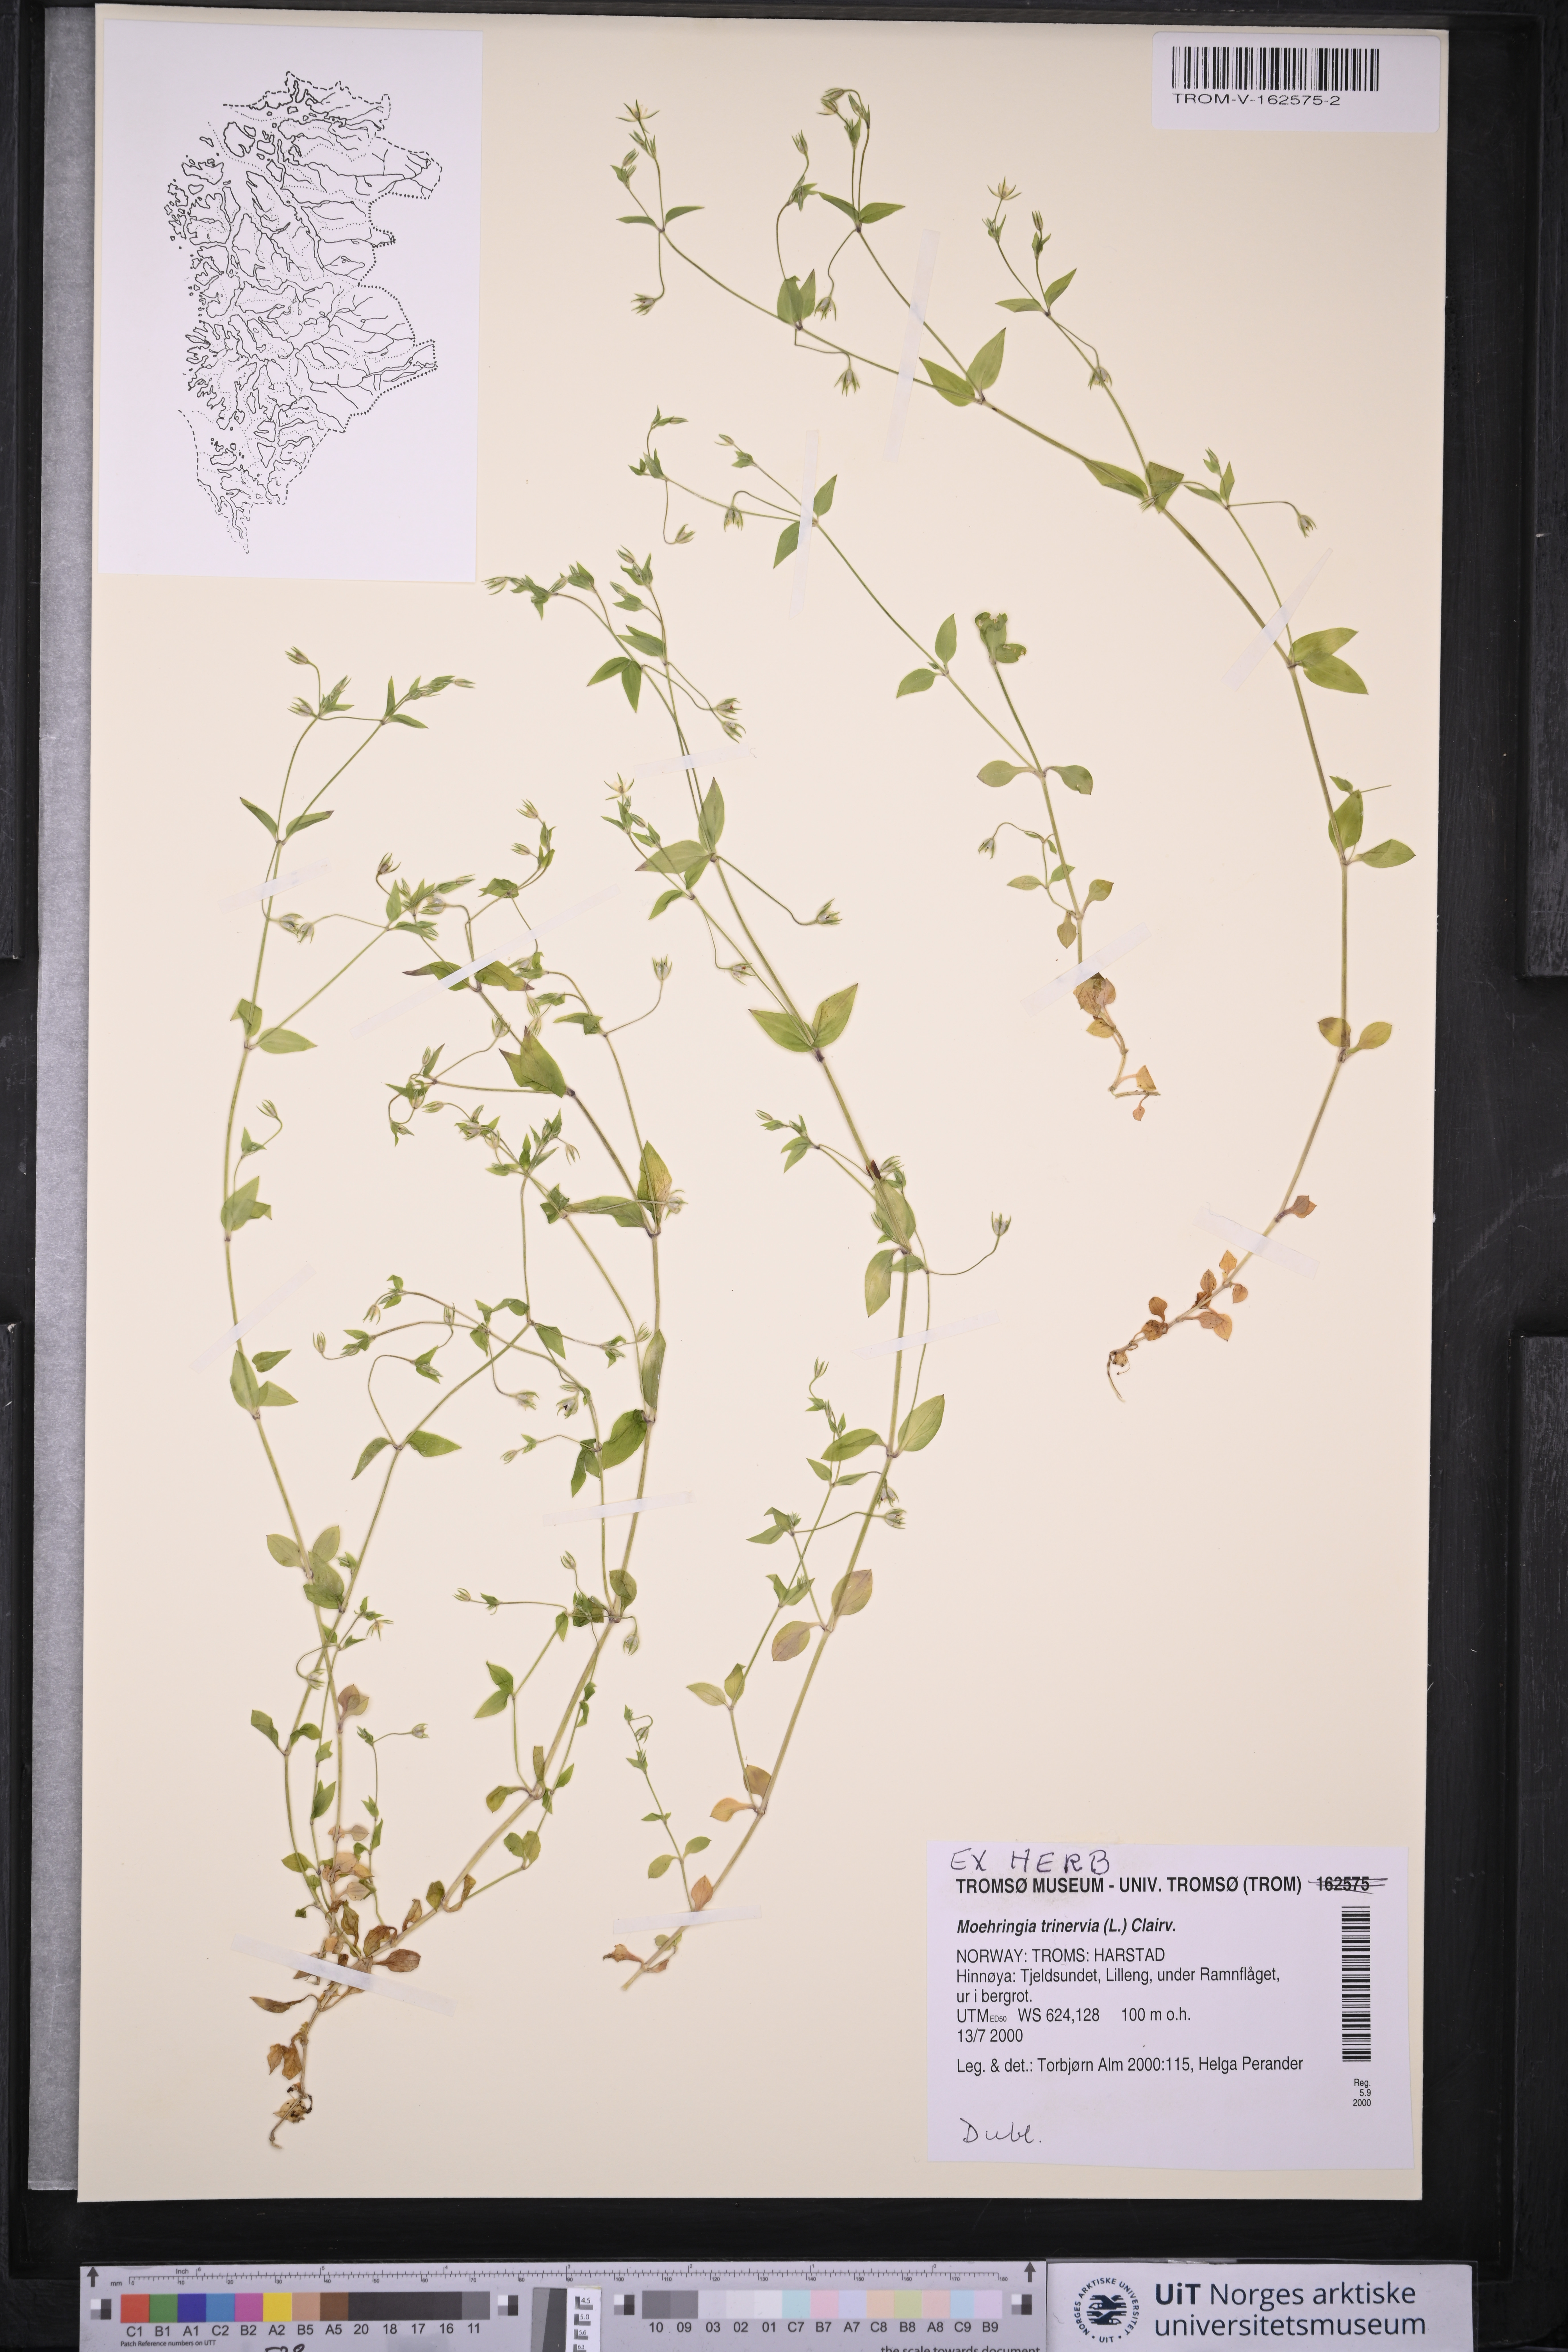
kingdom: Plantae
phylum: Tracheophyta
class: Magnoliopsida
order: Caryophyllales
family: Caryophyllaceae
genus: Moehringia
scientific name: Moehringia trinervia
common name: Three-nerved sandwort
